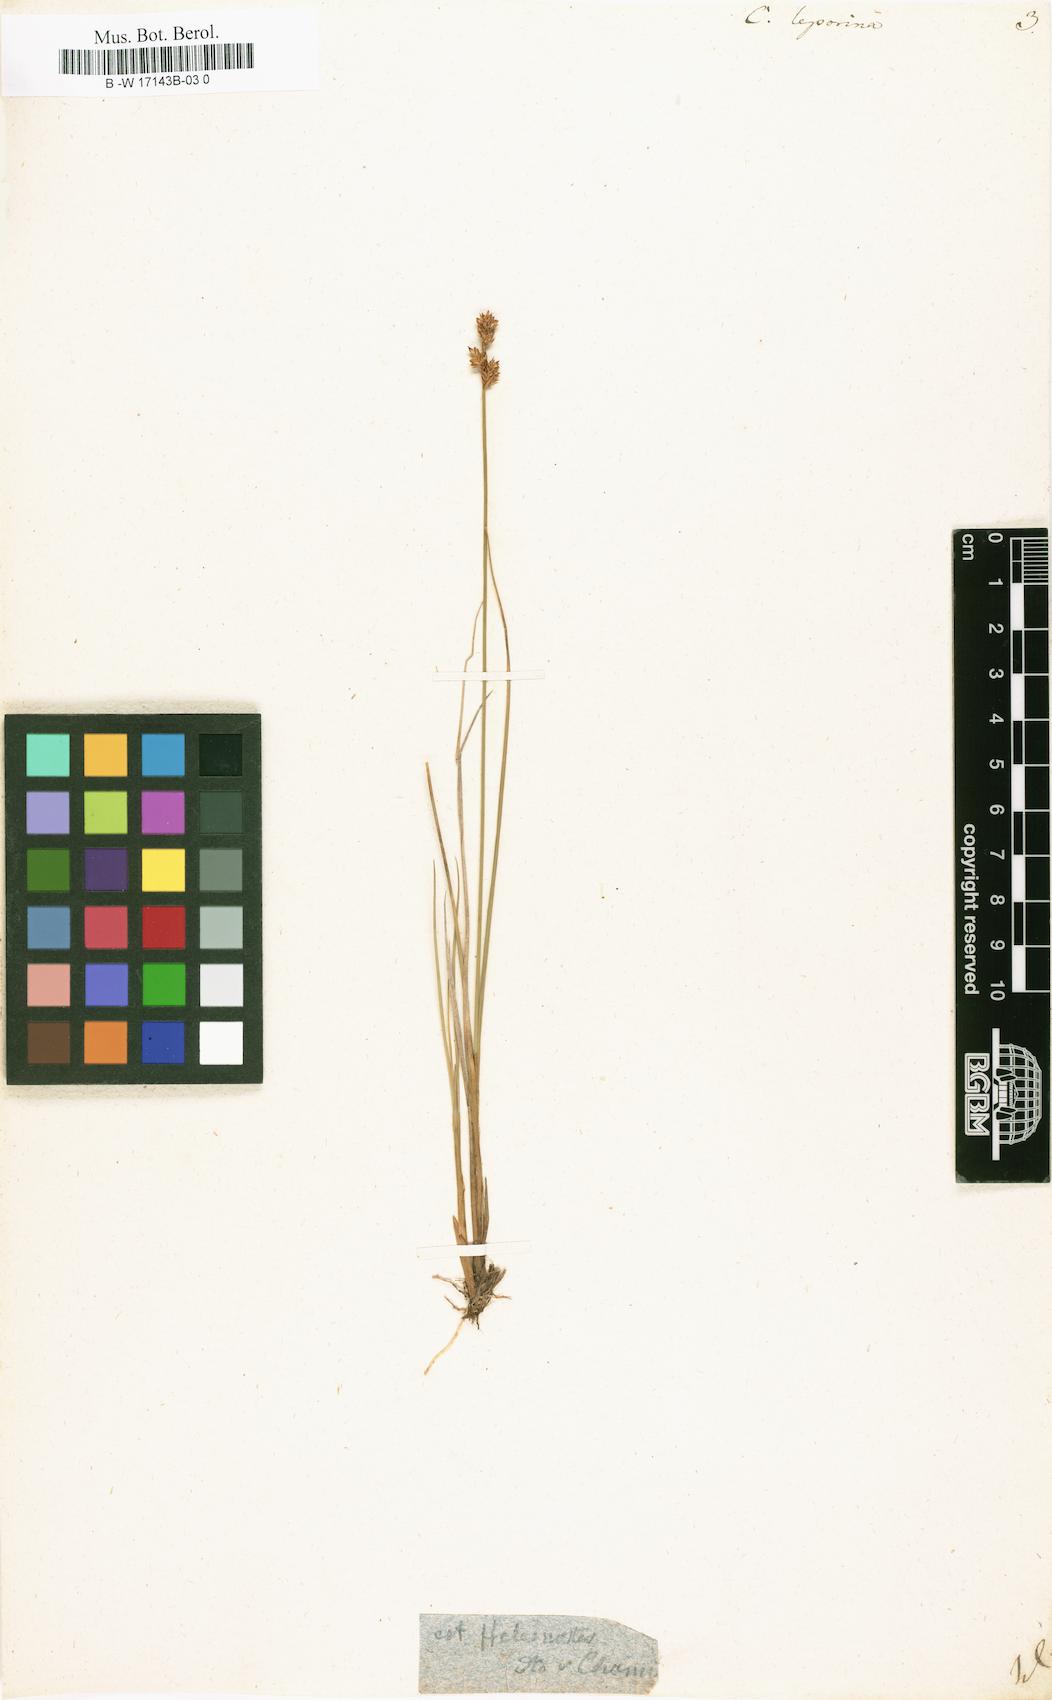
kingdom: Plantae
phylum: Tracheophyta
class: Liliopsida
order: Poales
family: Cyperaceae
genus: Carex
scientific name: Carex leporina
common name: Oval sedge
